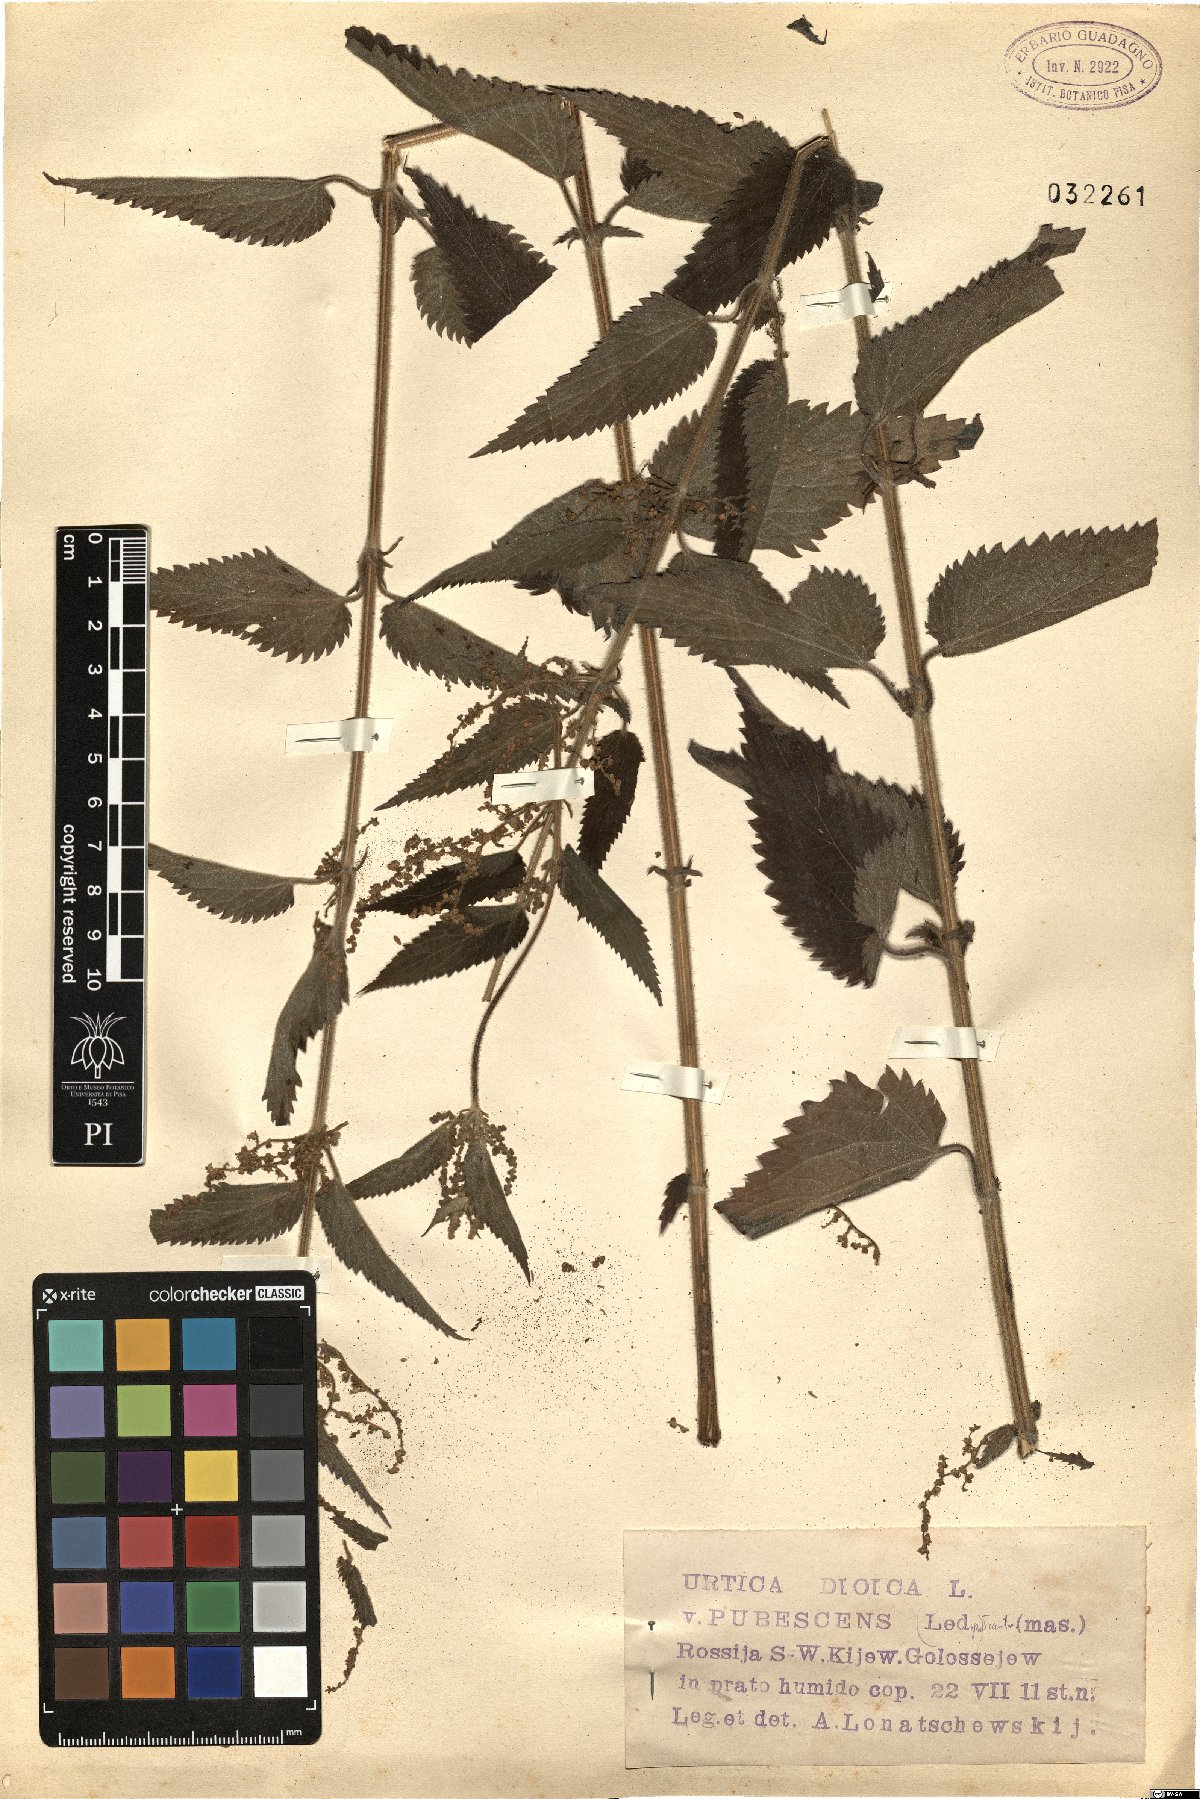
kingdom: Plantae
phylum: Tracheophyta
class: Magnoliopsida
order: Rosales
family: Urticaceae
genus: Urtica
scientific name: Urtica dioica
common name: Common nettle
